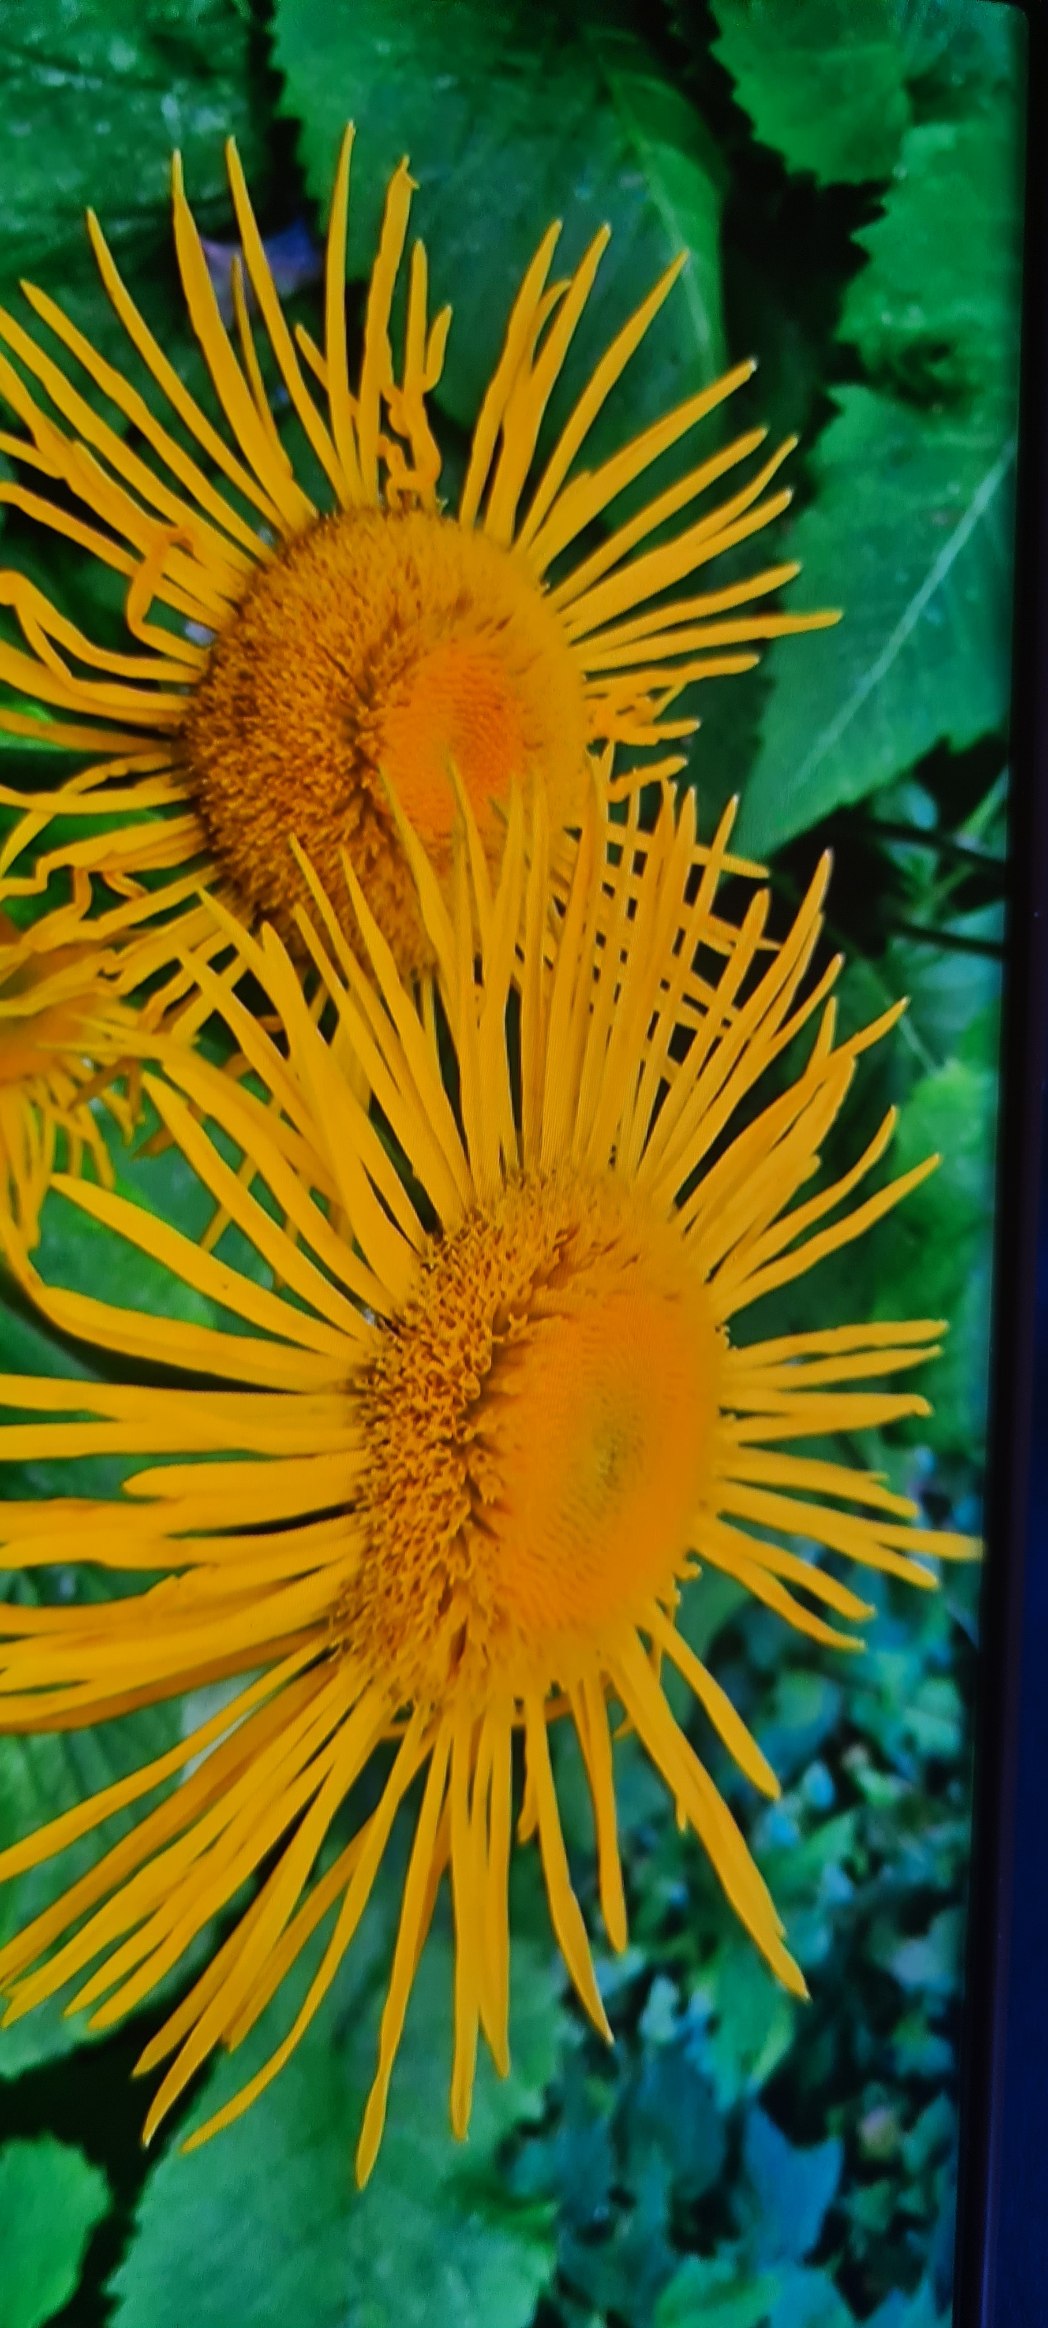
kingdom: Plantae
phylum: Tracheophyta
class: Magnoliopsida
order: Asterales
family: Asteraceae
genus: Telekia
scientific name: Telekia speciosa
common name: Tusindstråle
